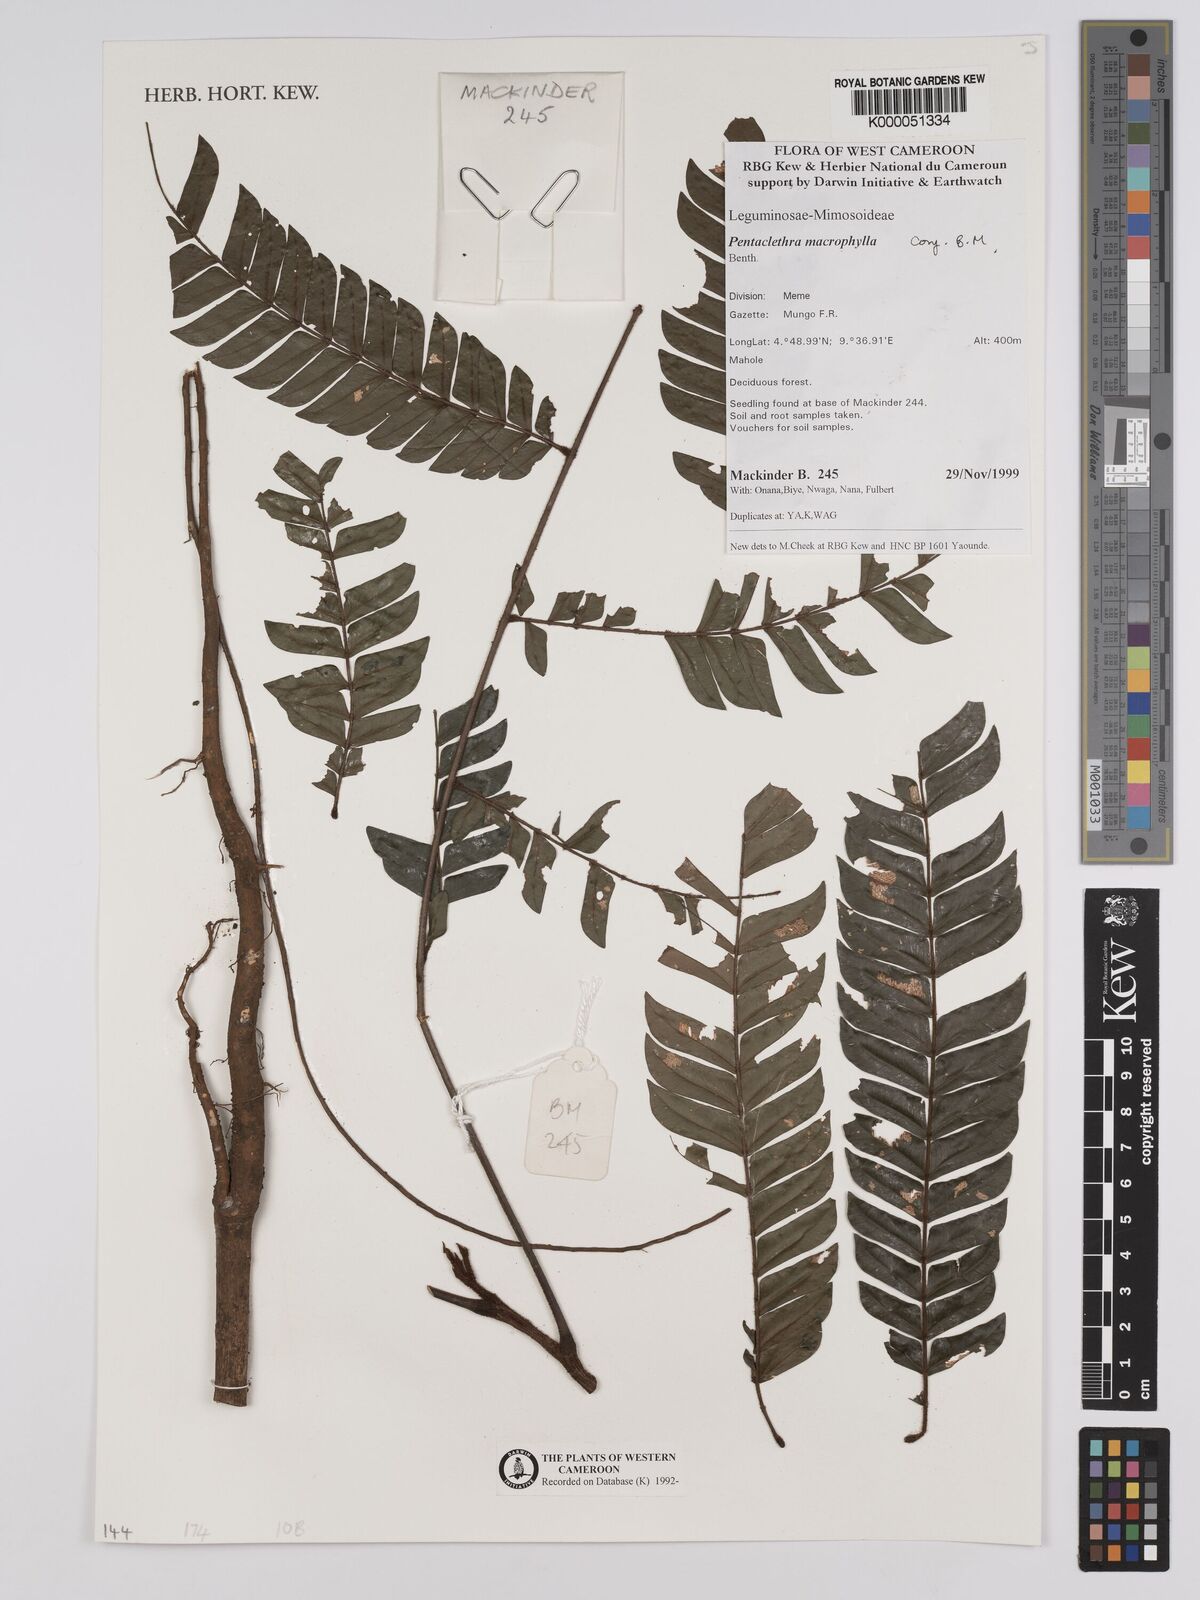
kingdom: Plantae
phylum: Tracheophyta
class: Magnoliopsida
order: Fabales
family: Fabaceae
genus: Pentaclethra
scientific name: Pentaclethra macrophylla
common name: African oil bean
